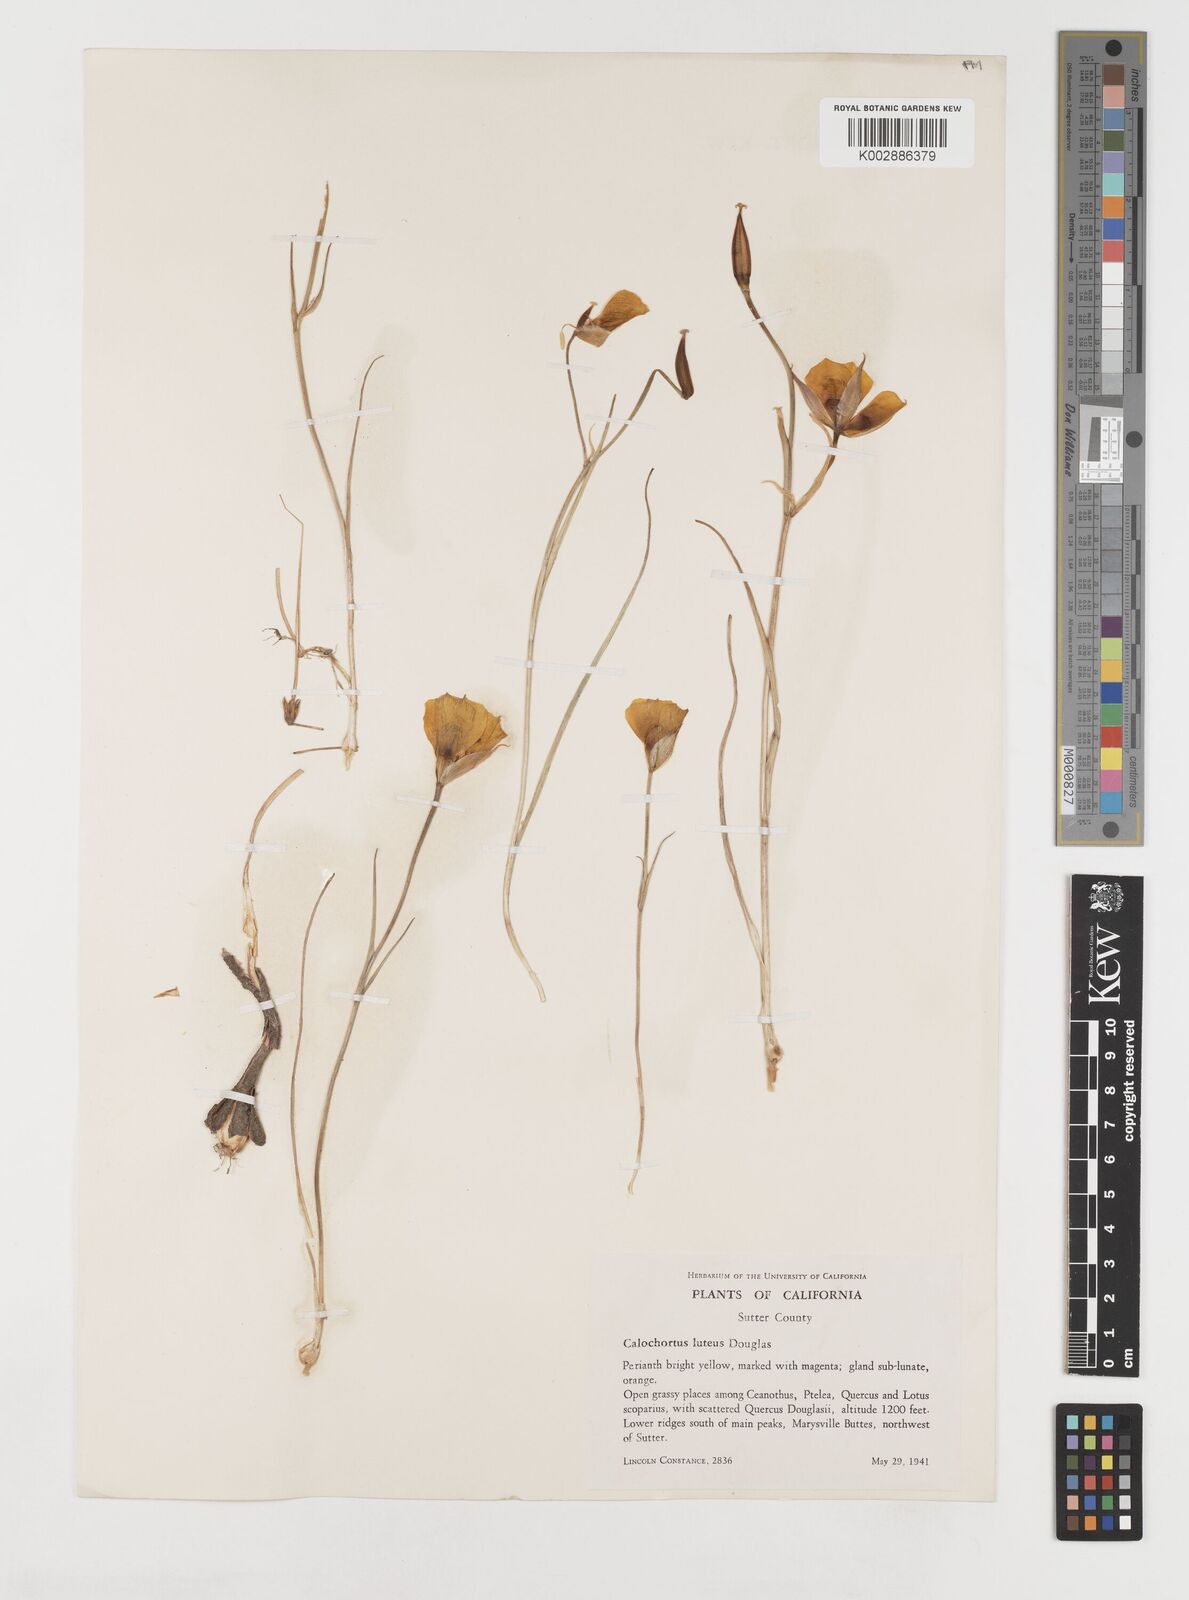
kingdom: Plantae
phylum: Tracheophyta
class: Liliopsida
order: Liliales
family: Liliaceae
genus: Calochortus
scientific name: Calochortus nuttallii
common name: Sego-lily
